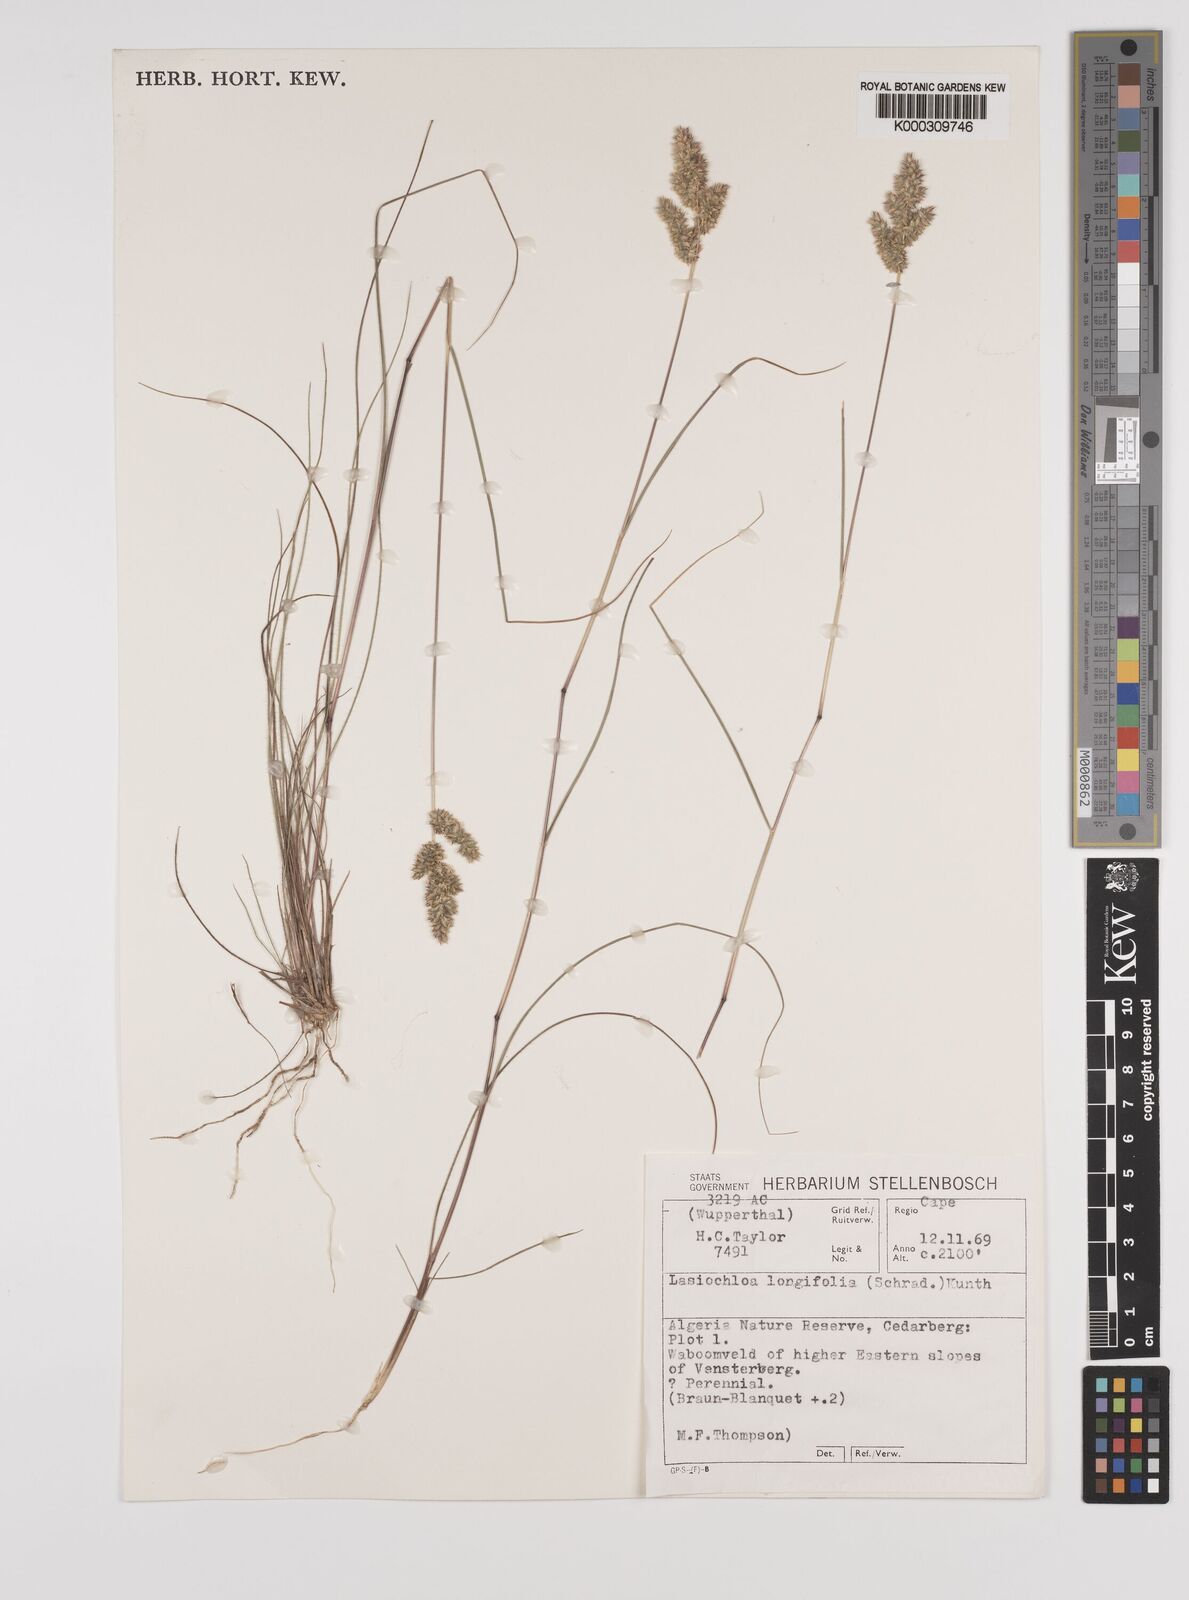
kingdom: Plantae
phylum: Tracheophyta
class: Liliopsida
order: Poales
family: Poaceae
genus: Tribolium
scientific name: Tribolium hispidum
